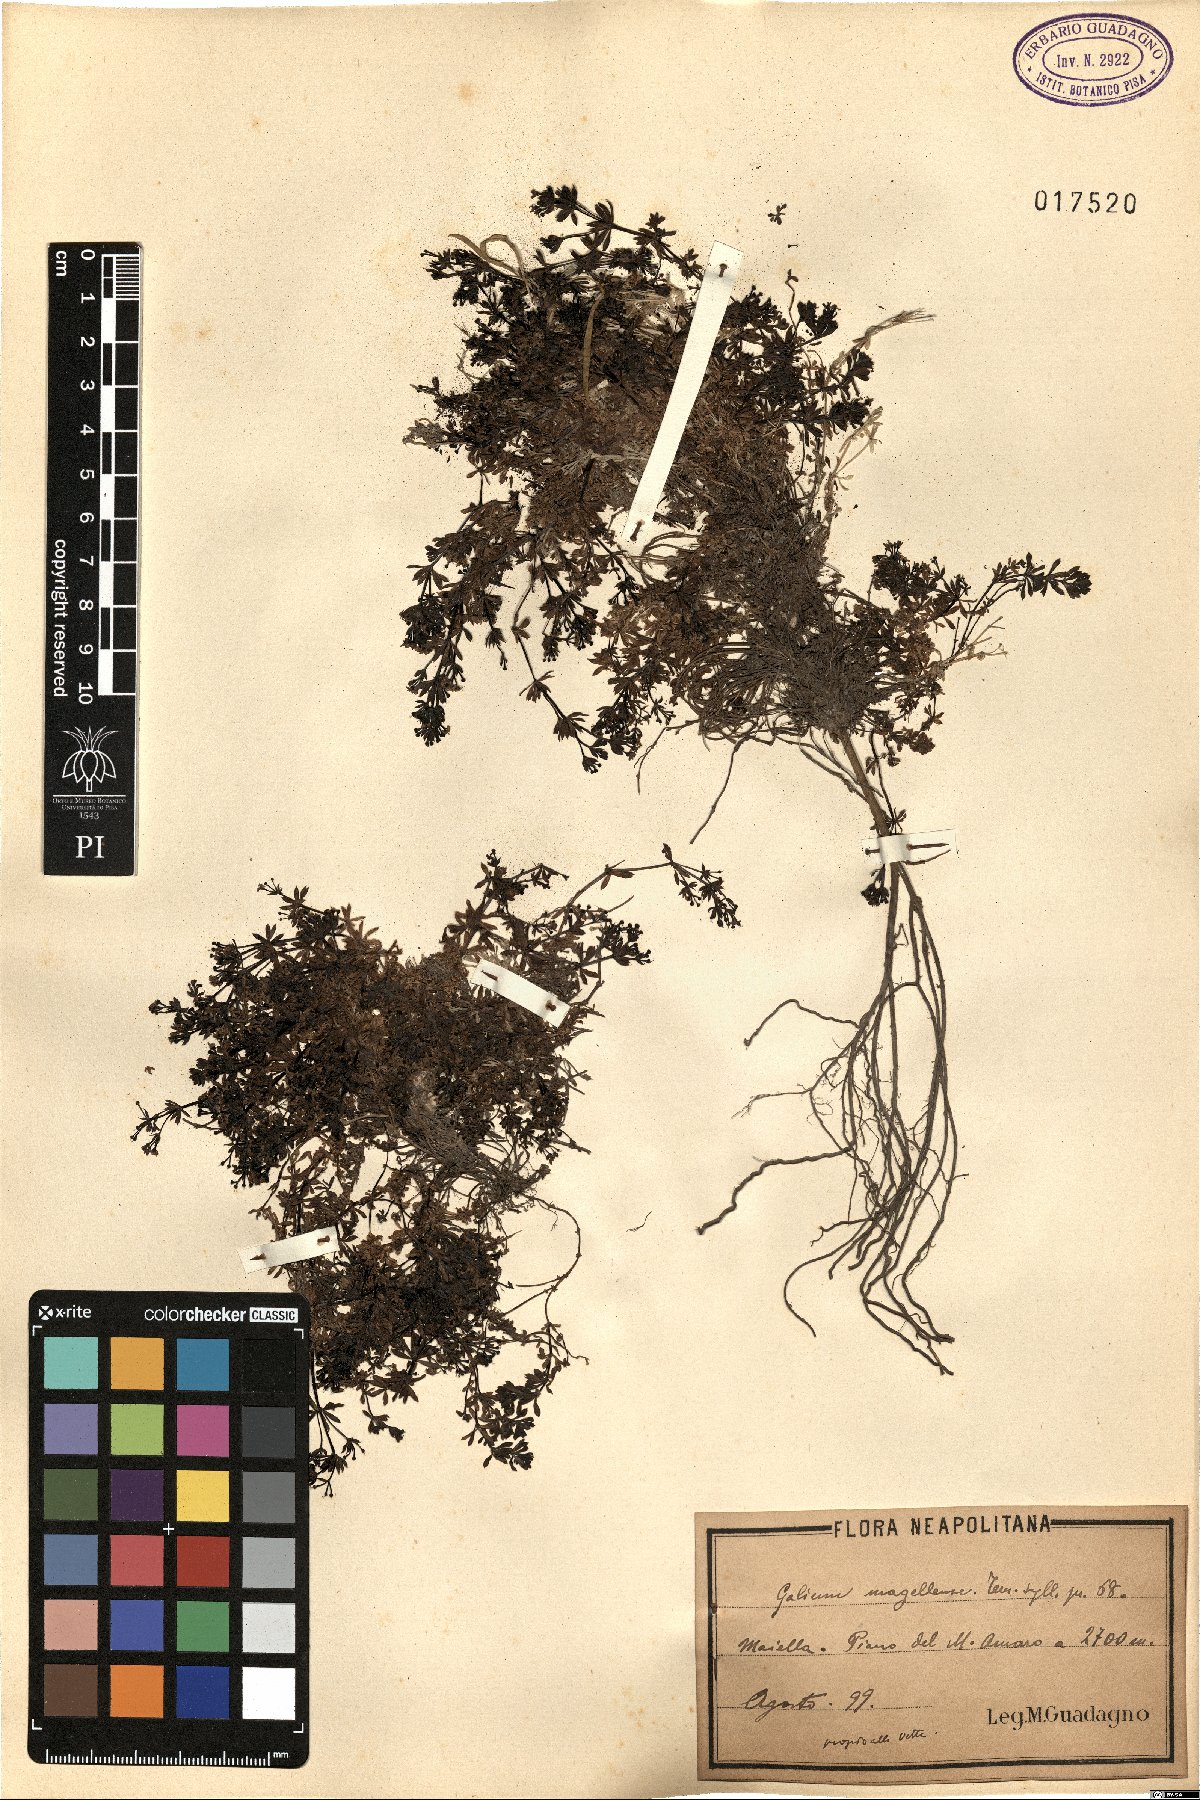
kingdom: Plantae
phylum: Tracheophyta
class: Magnoliopsida
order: Gentianales
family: Rubiaceae
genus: Galium
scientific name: Galium magellense
